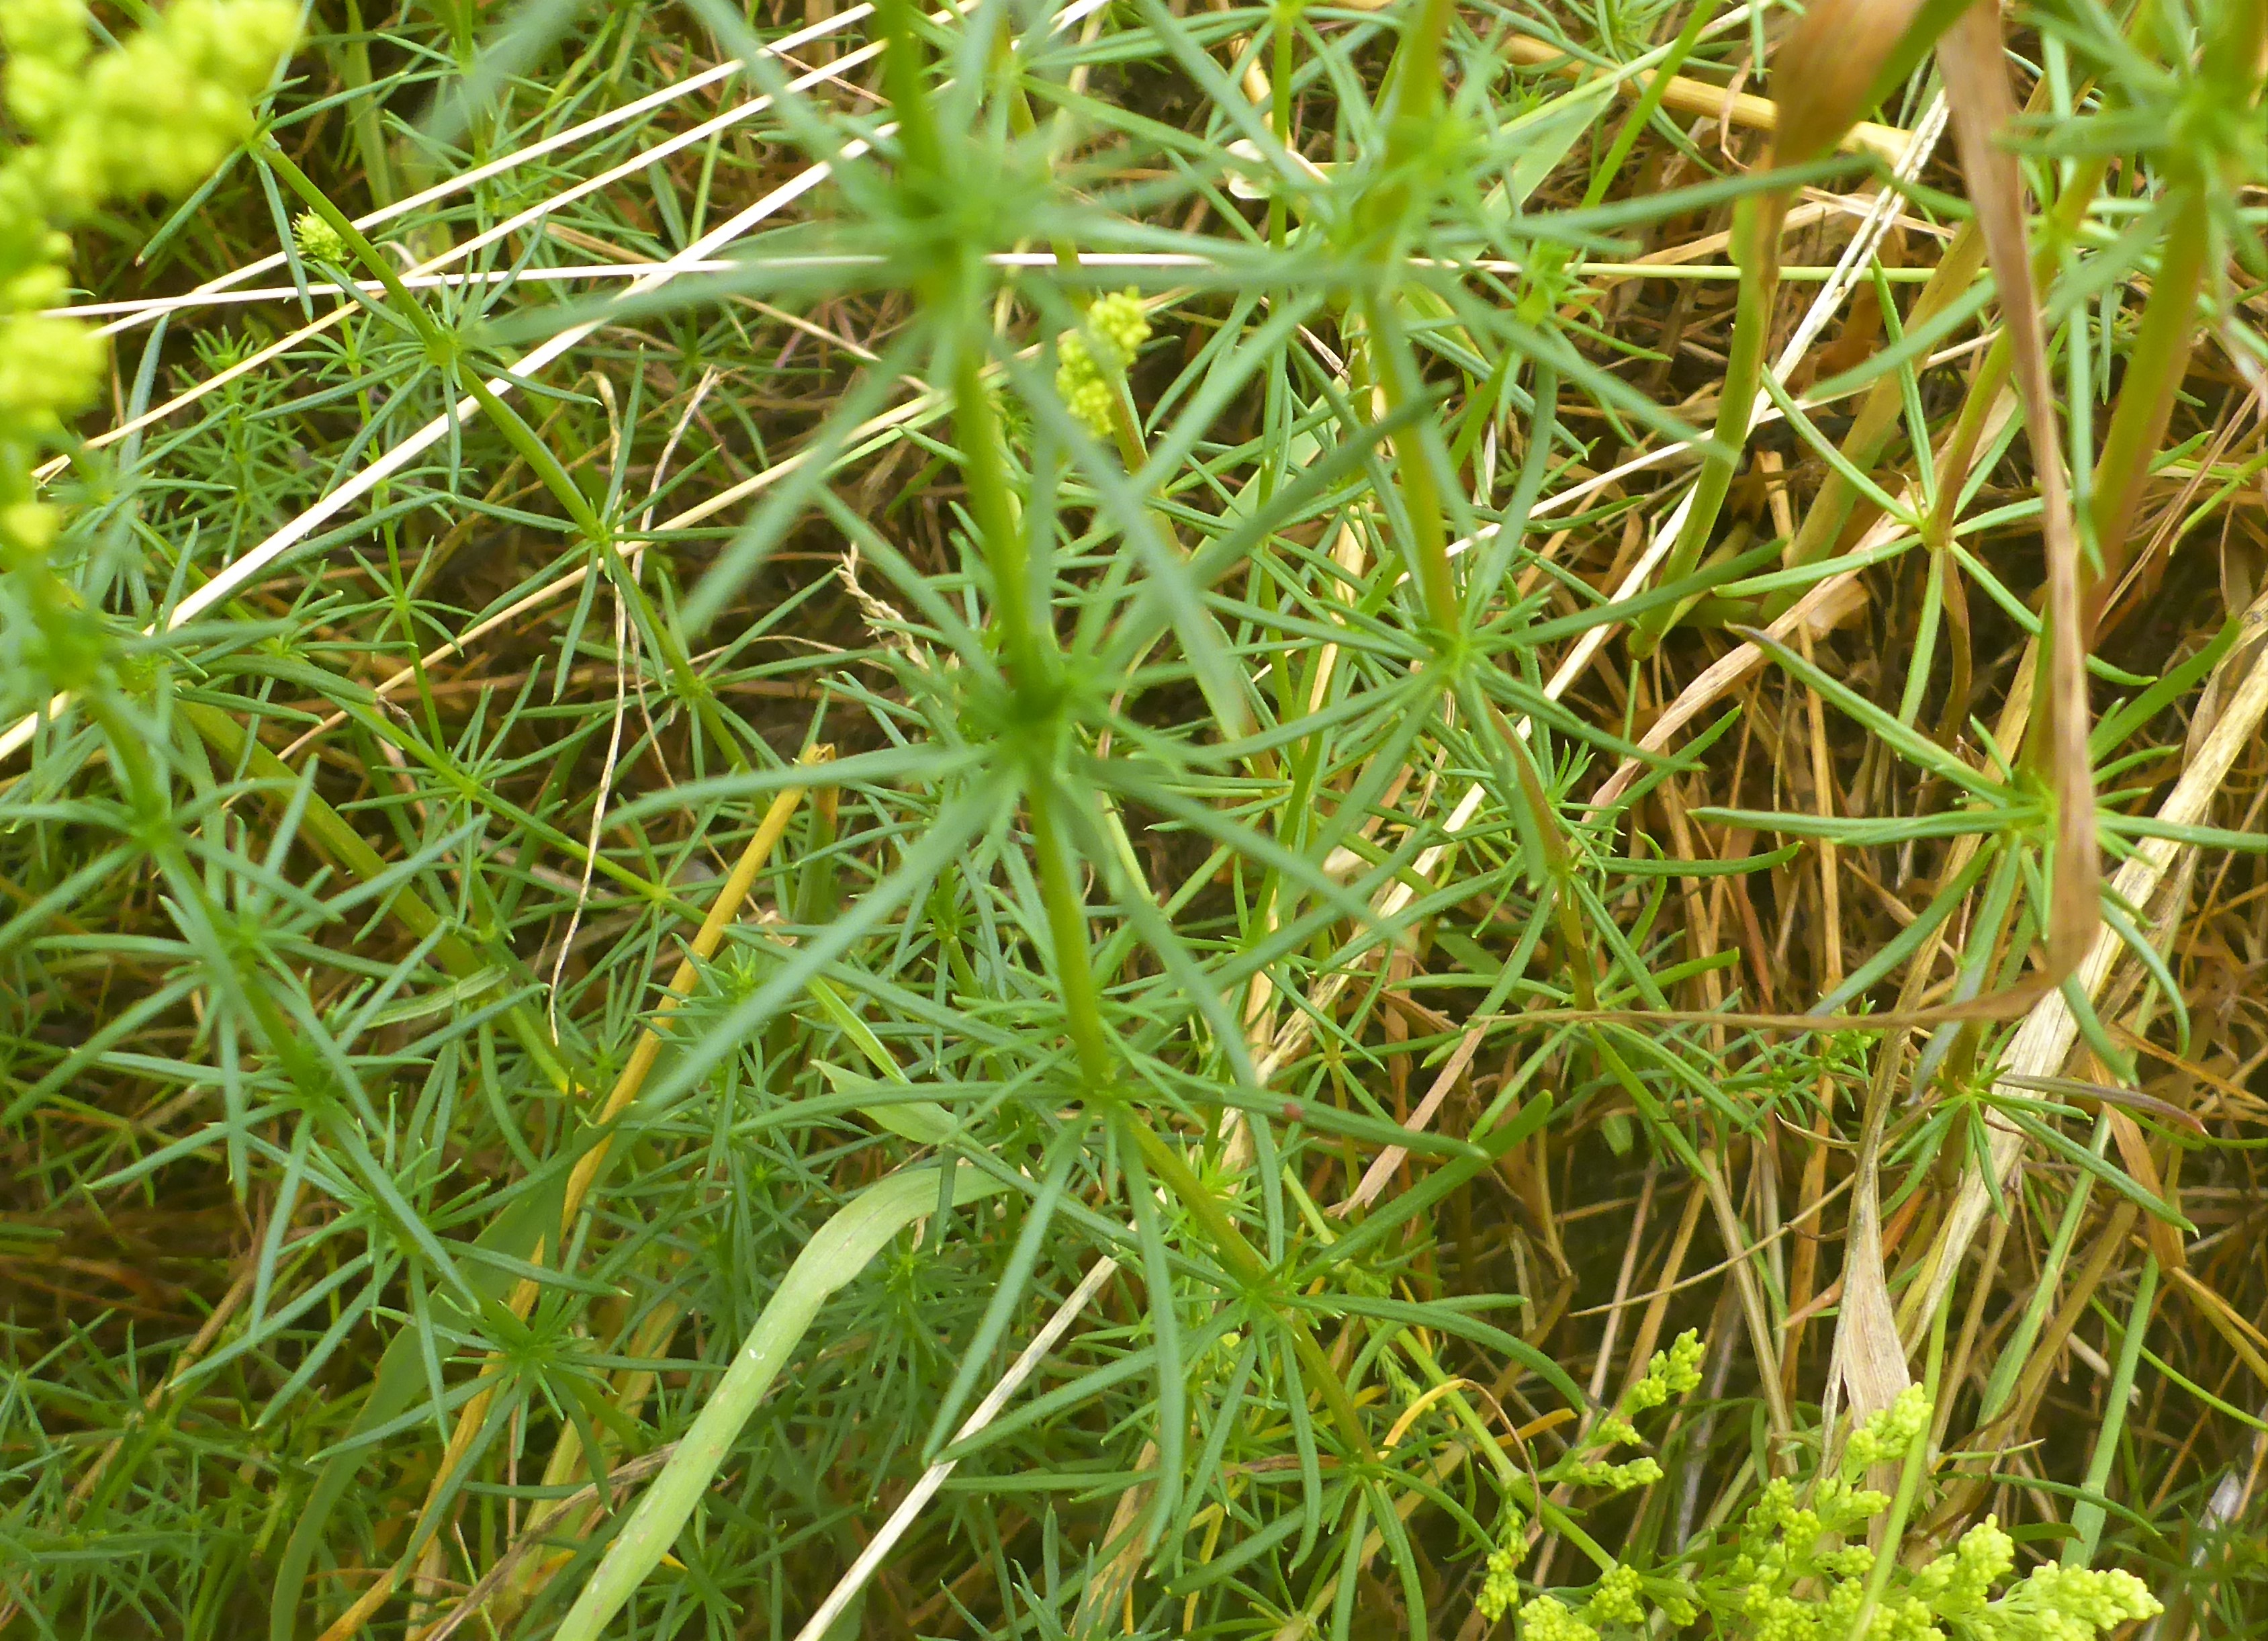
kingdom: Plantae
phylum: Tracheophyta
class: Magnoliopsida
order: Gentianales
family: Rubiaceae
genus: Galium
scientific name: Galium verum
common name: Gul snerre
